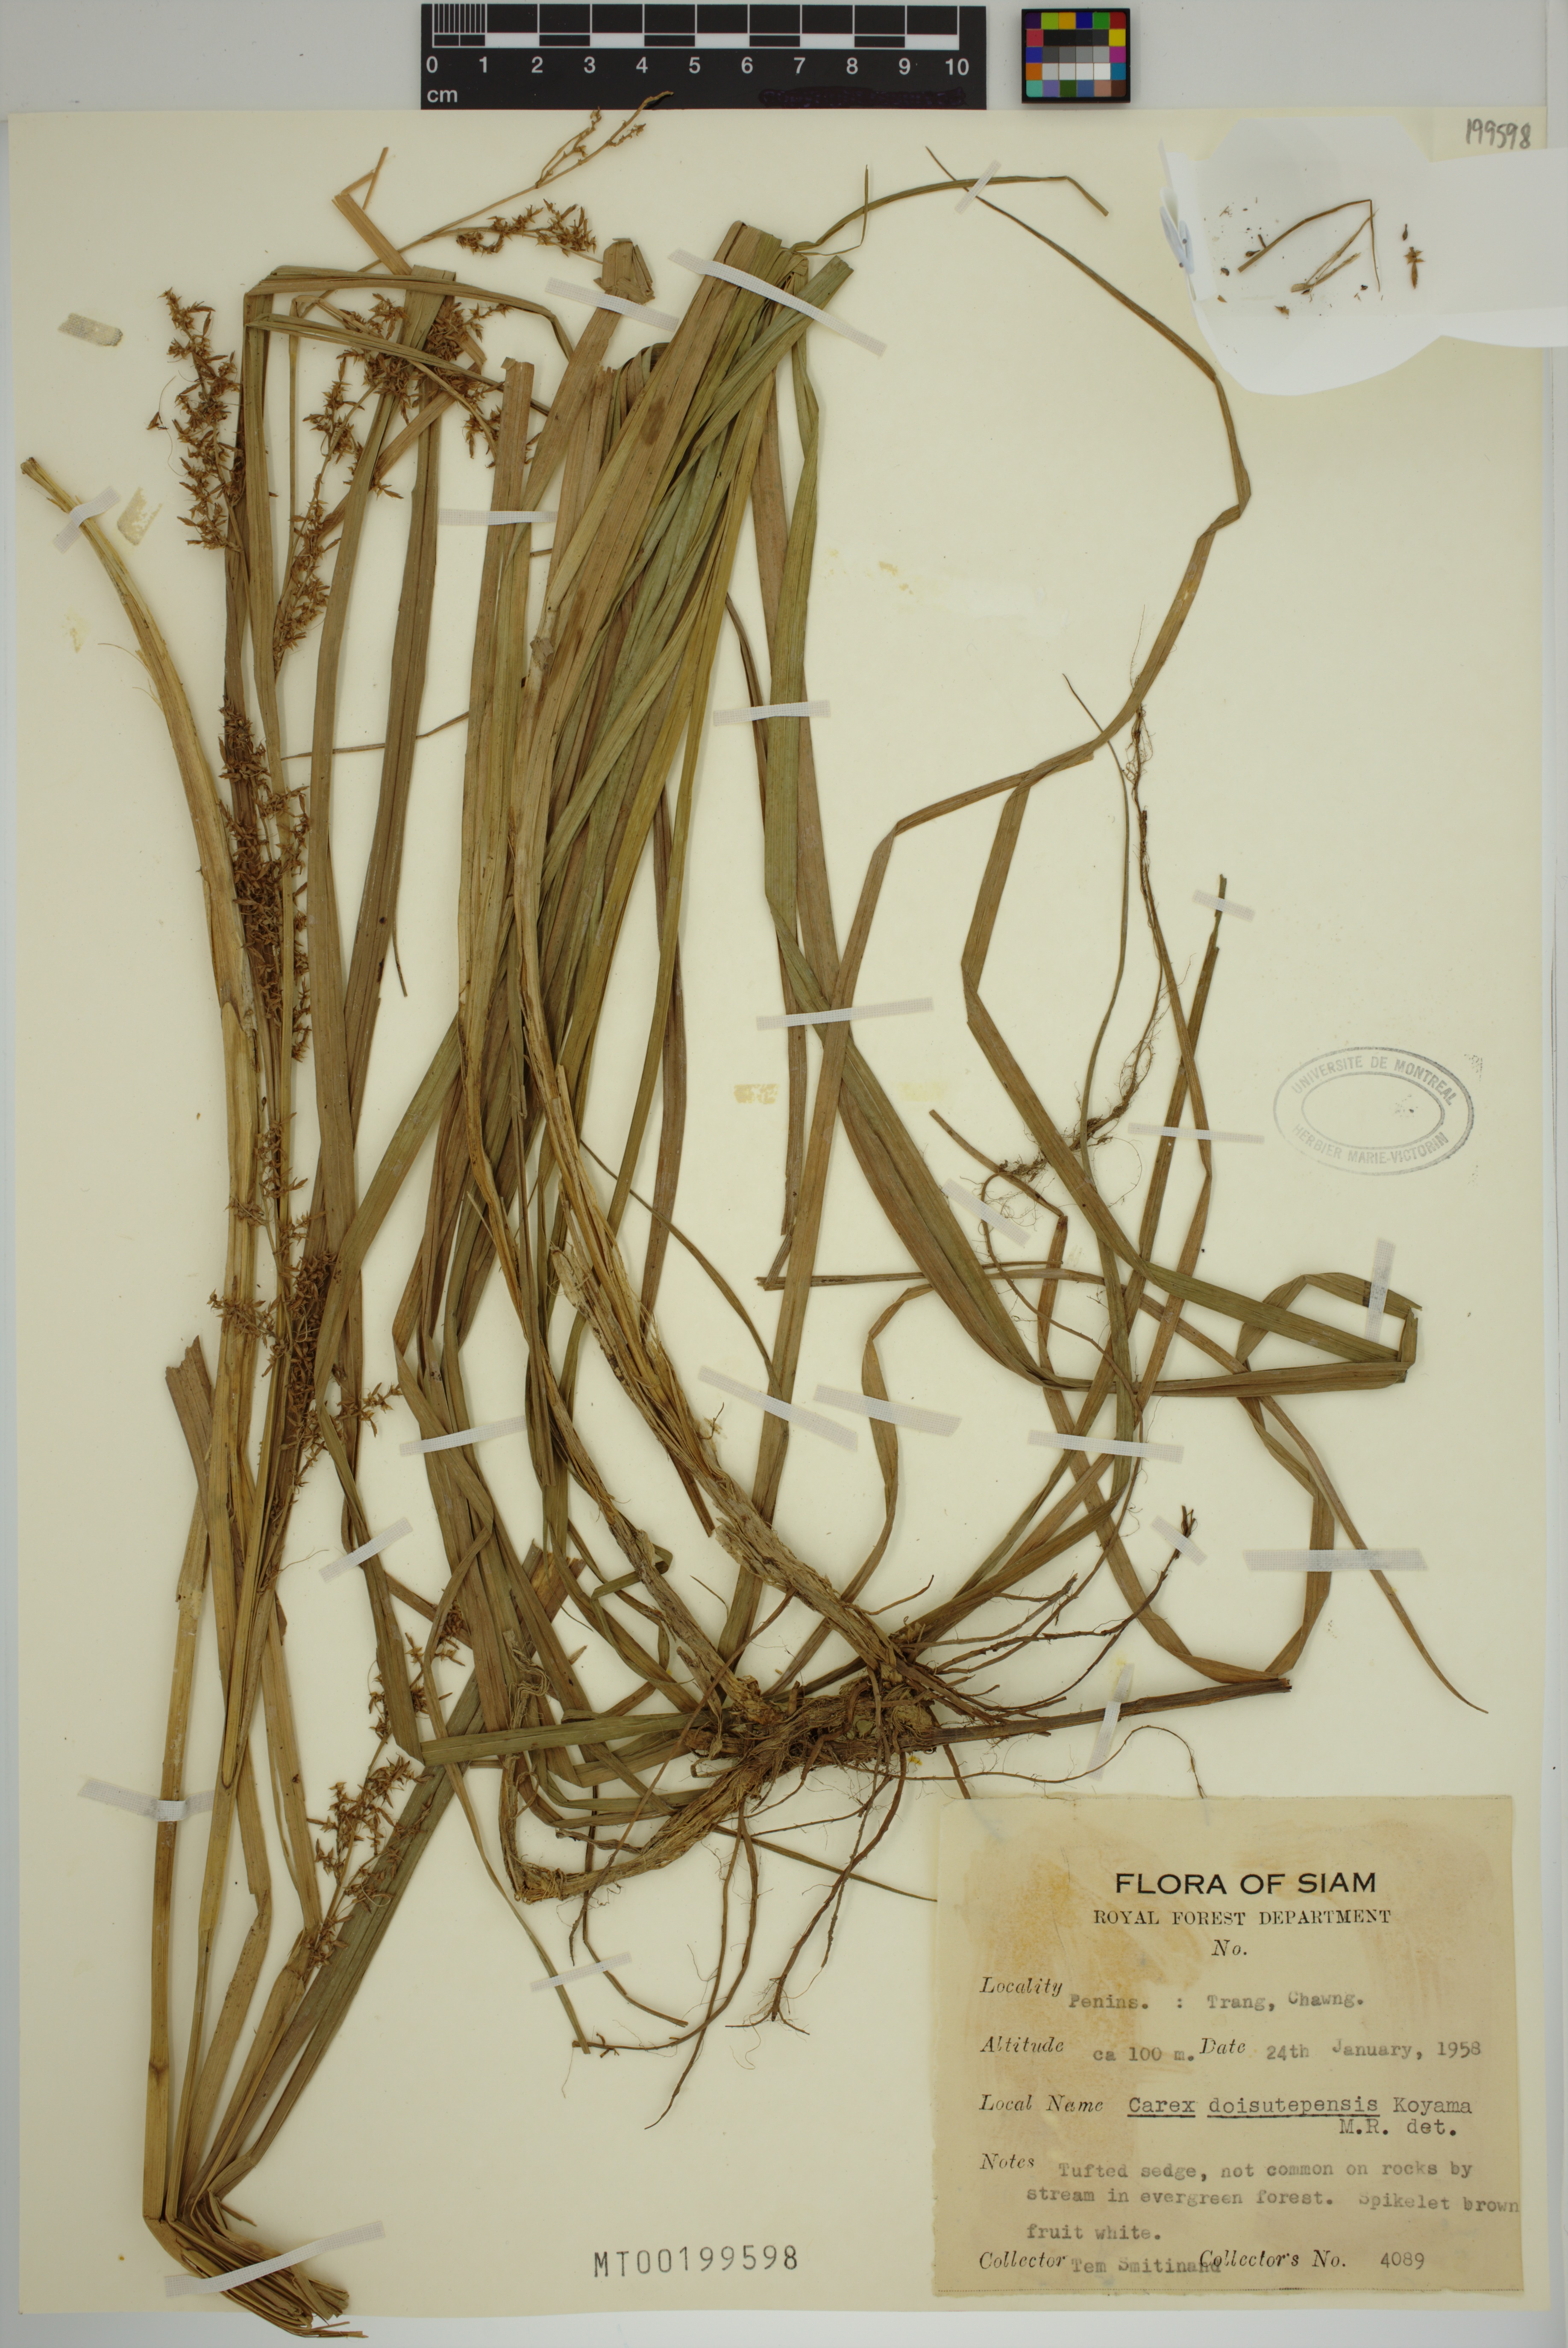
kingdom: Plantae
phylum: Tracheophyta
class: Liliopsida
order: Poales
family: Cyperaceae
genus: Carex
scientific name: Carex doisutepensis
